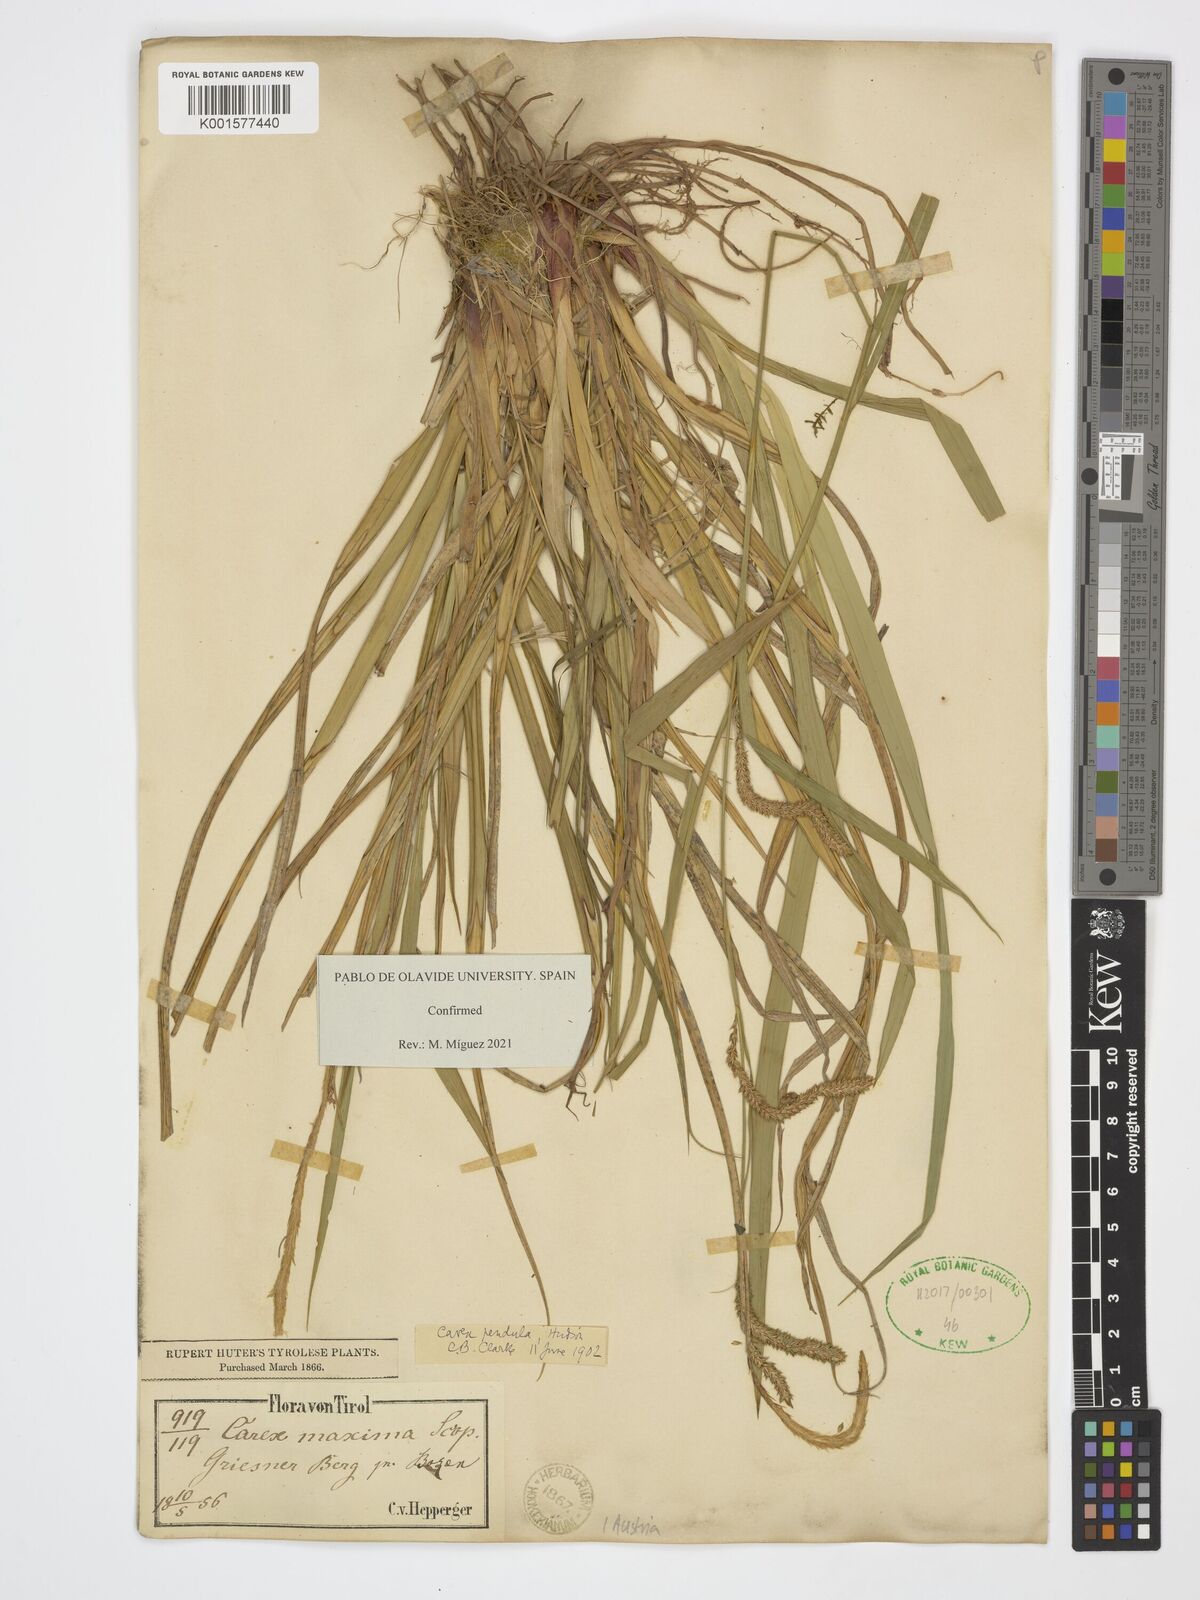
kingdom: Plantae
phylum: Tracheophyta
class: Liliopsida
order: Poales
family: Cyperaceae
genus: Carex
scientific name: Carex pendula
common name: Pendulous sedge
